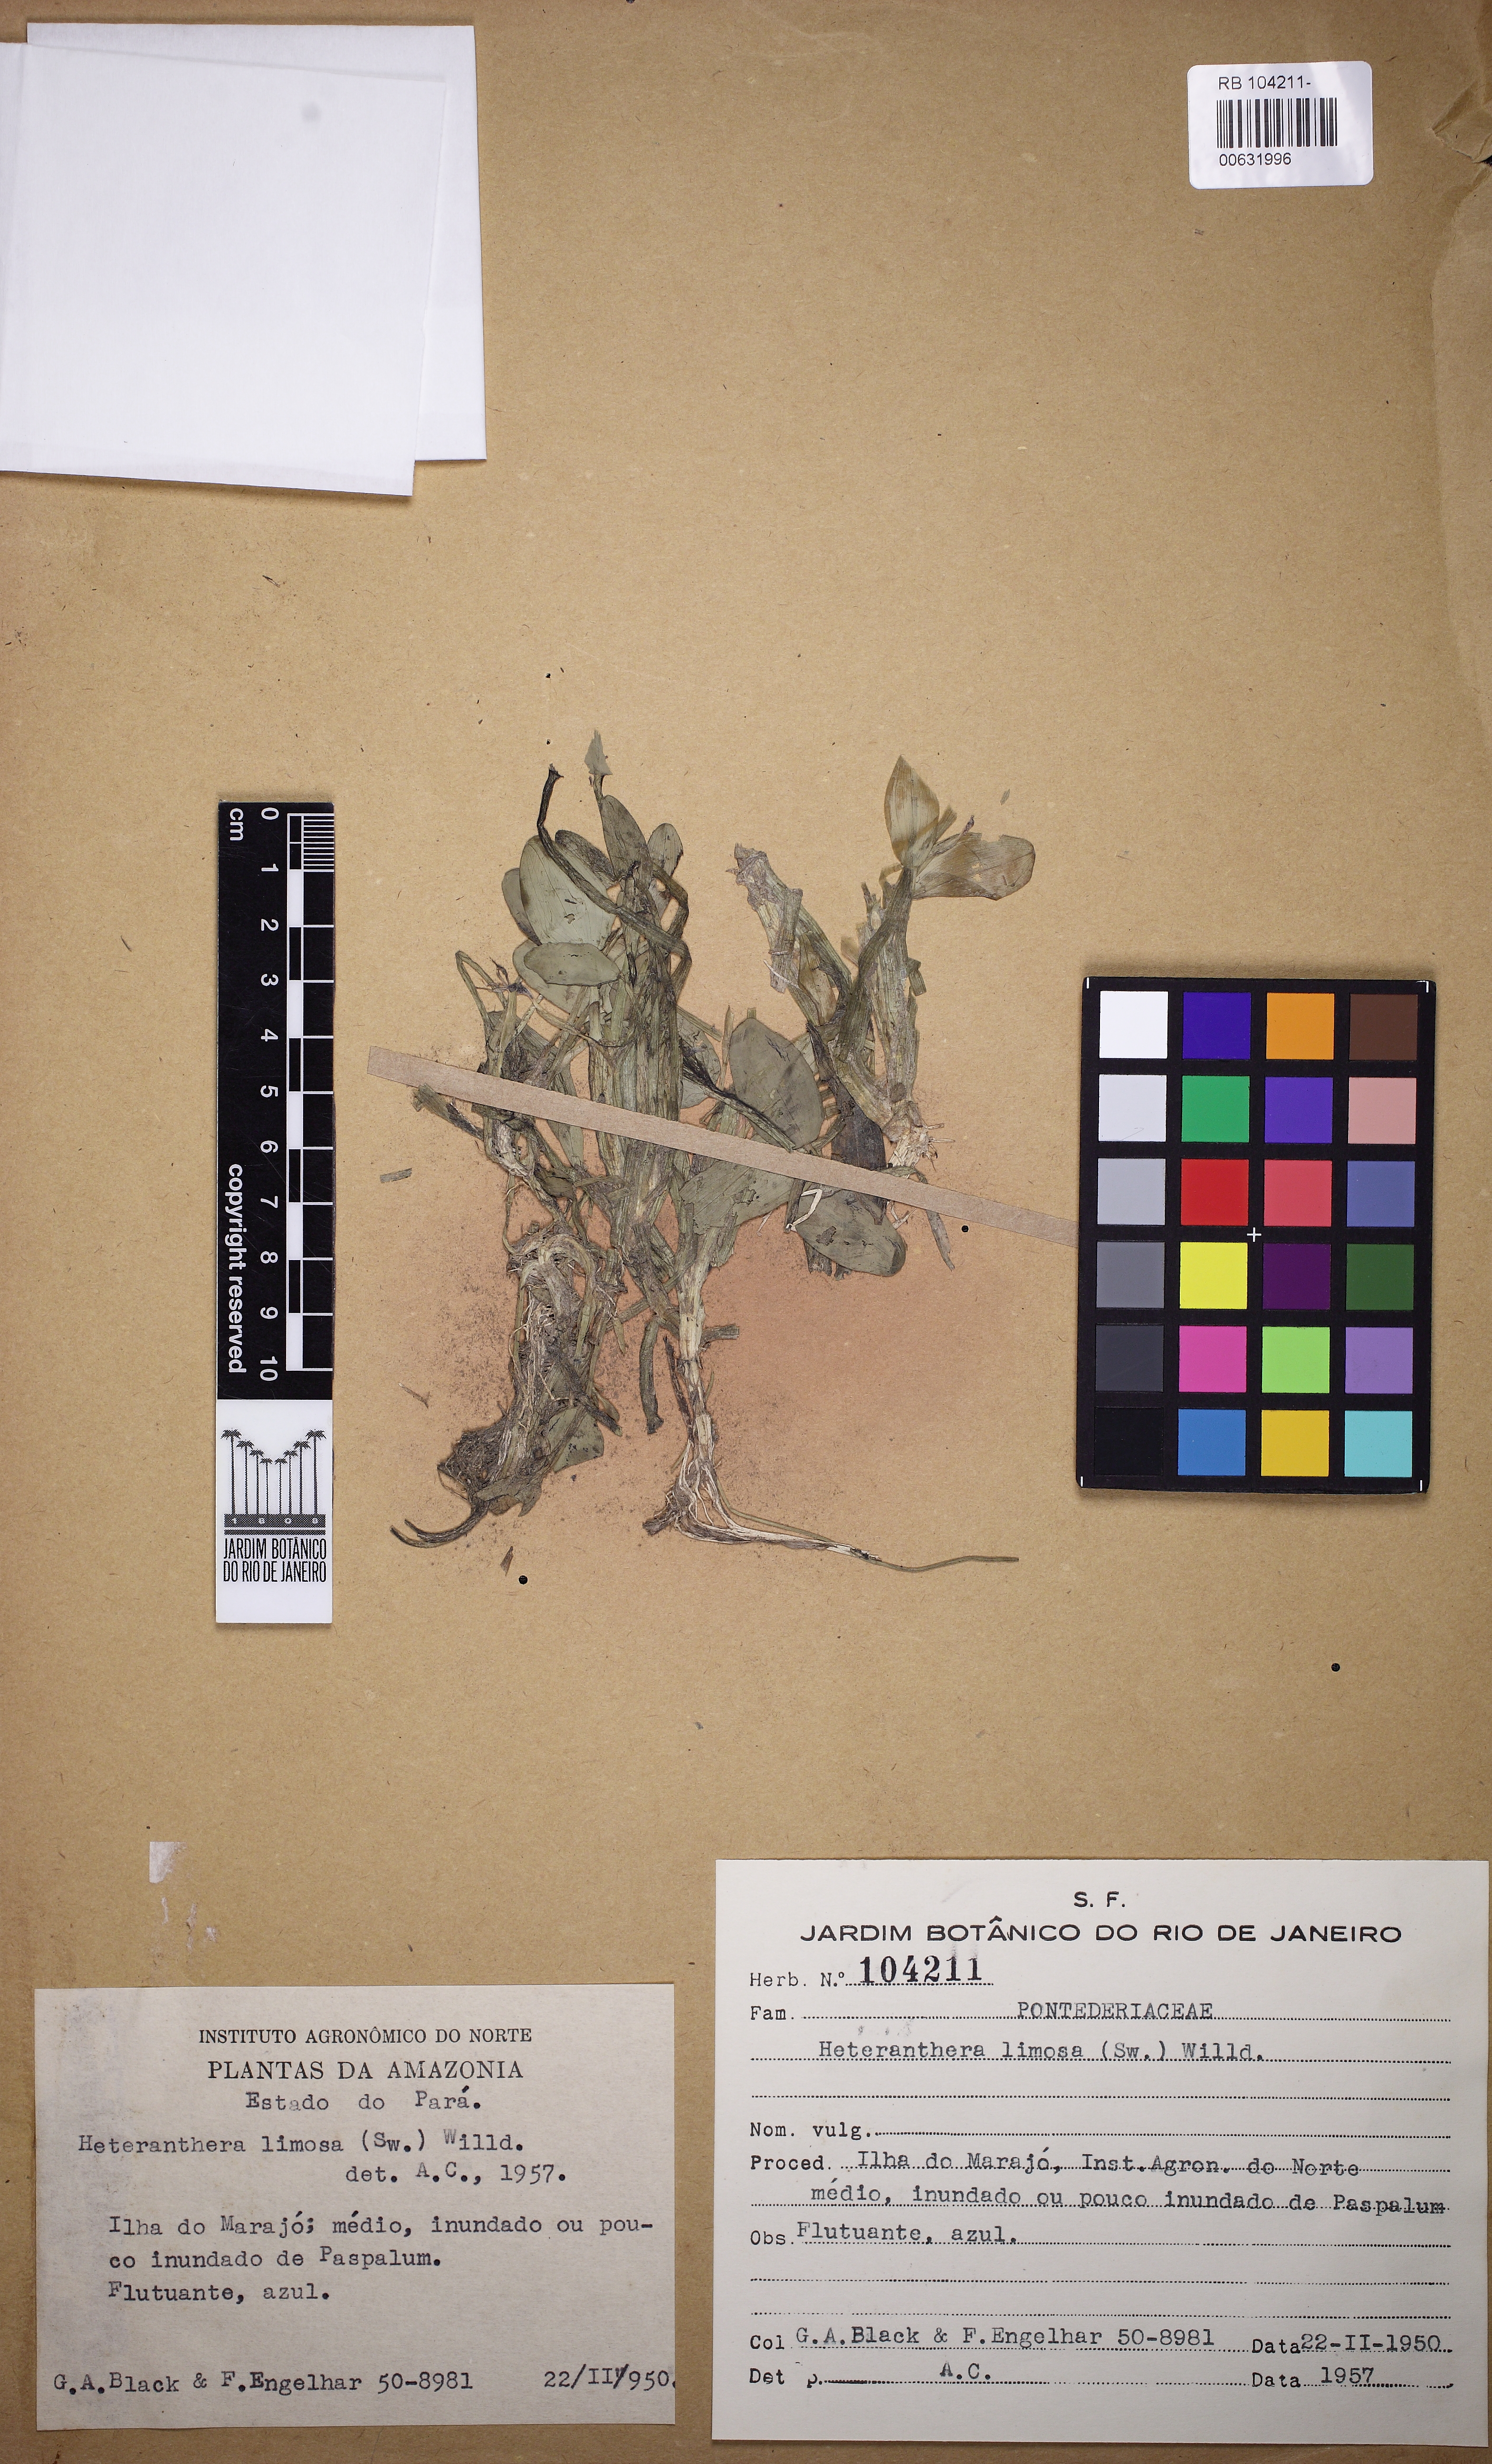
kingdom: Plantae
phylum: Tracheophyta
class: Liliopsida
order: Commelinales
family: Pontederiaceae
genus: Heteranthera
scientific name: Heteranthera limosa
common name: Blue mud-plantain
